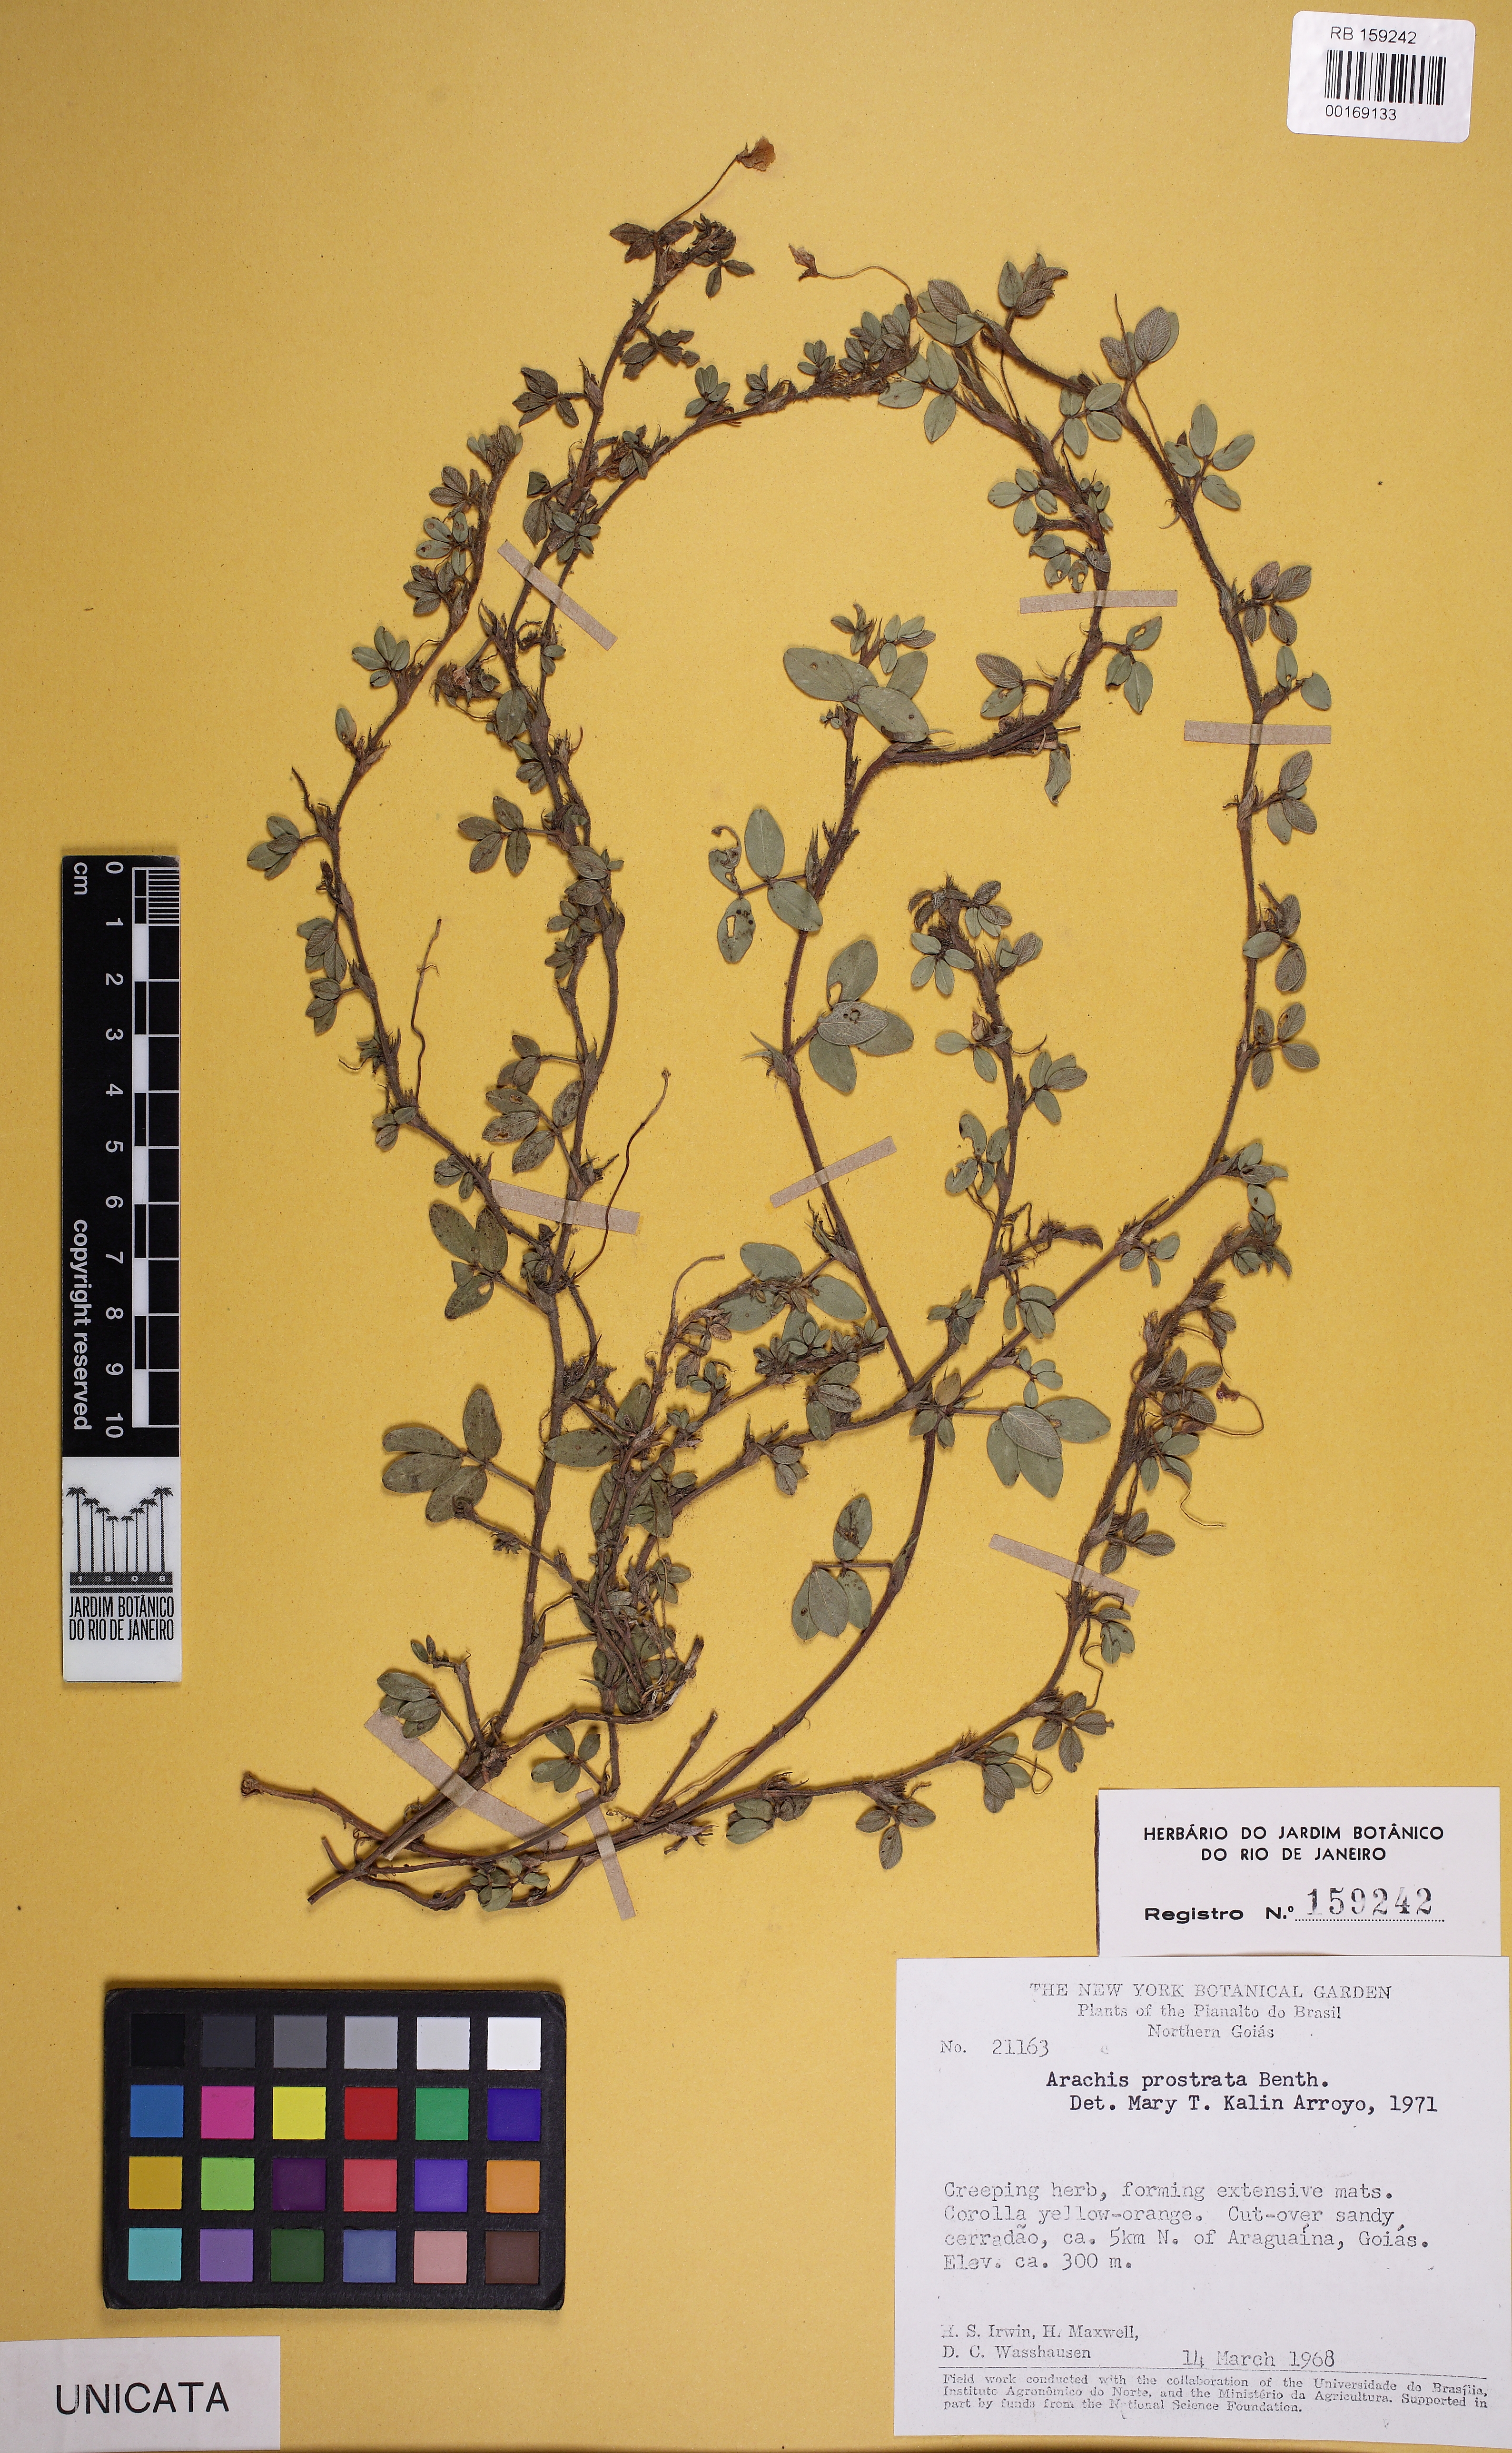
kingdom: Plantae
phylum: Tracheophyta
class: Magnoliopsida
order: Fabales
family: Fabaceae
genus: Arachis
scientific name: Arachis prostrata
